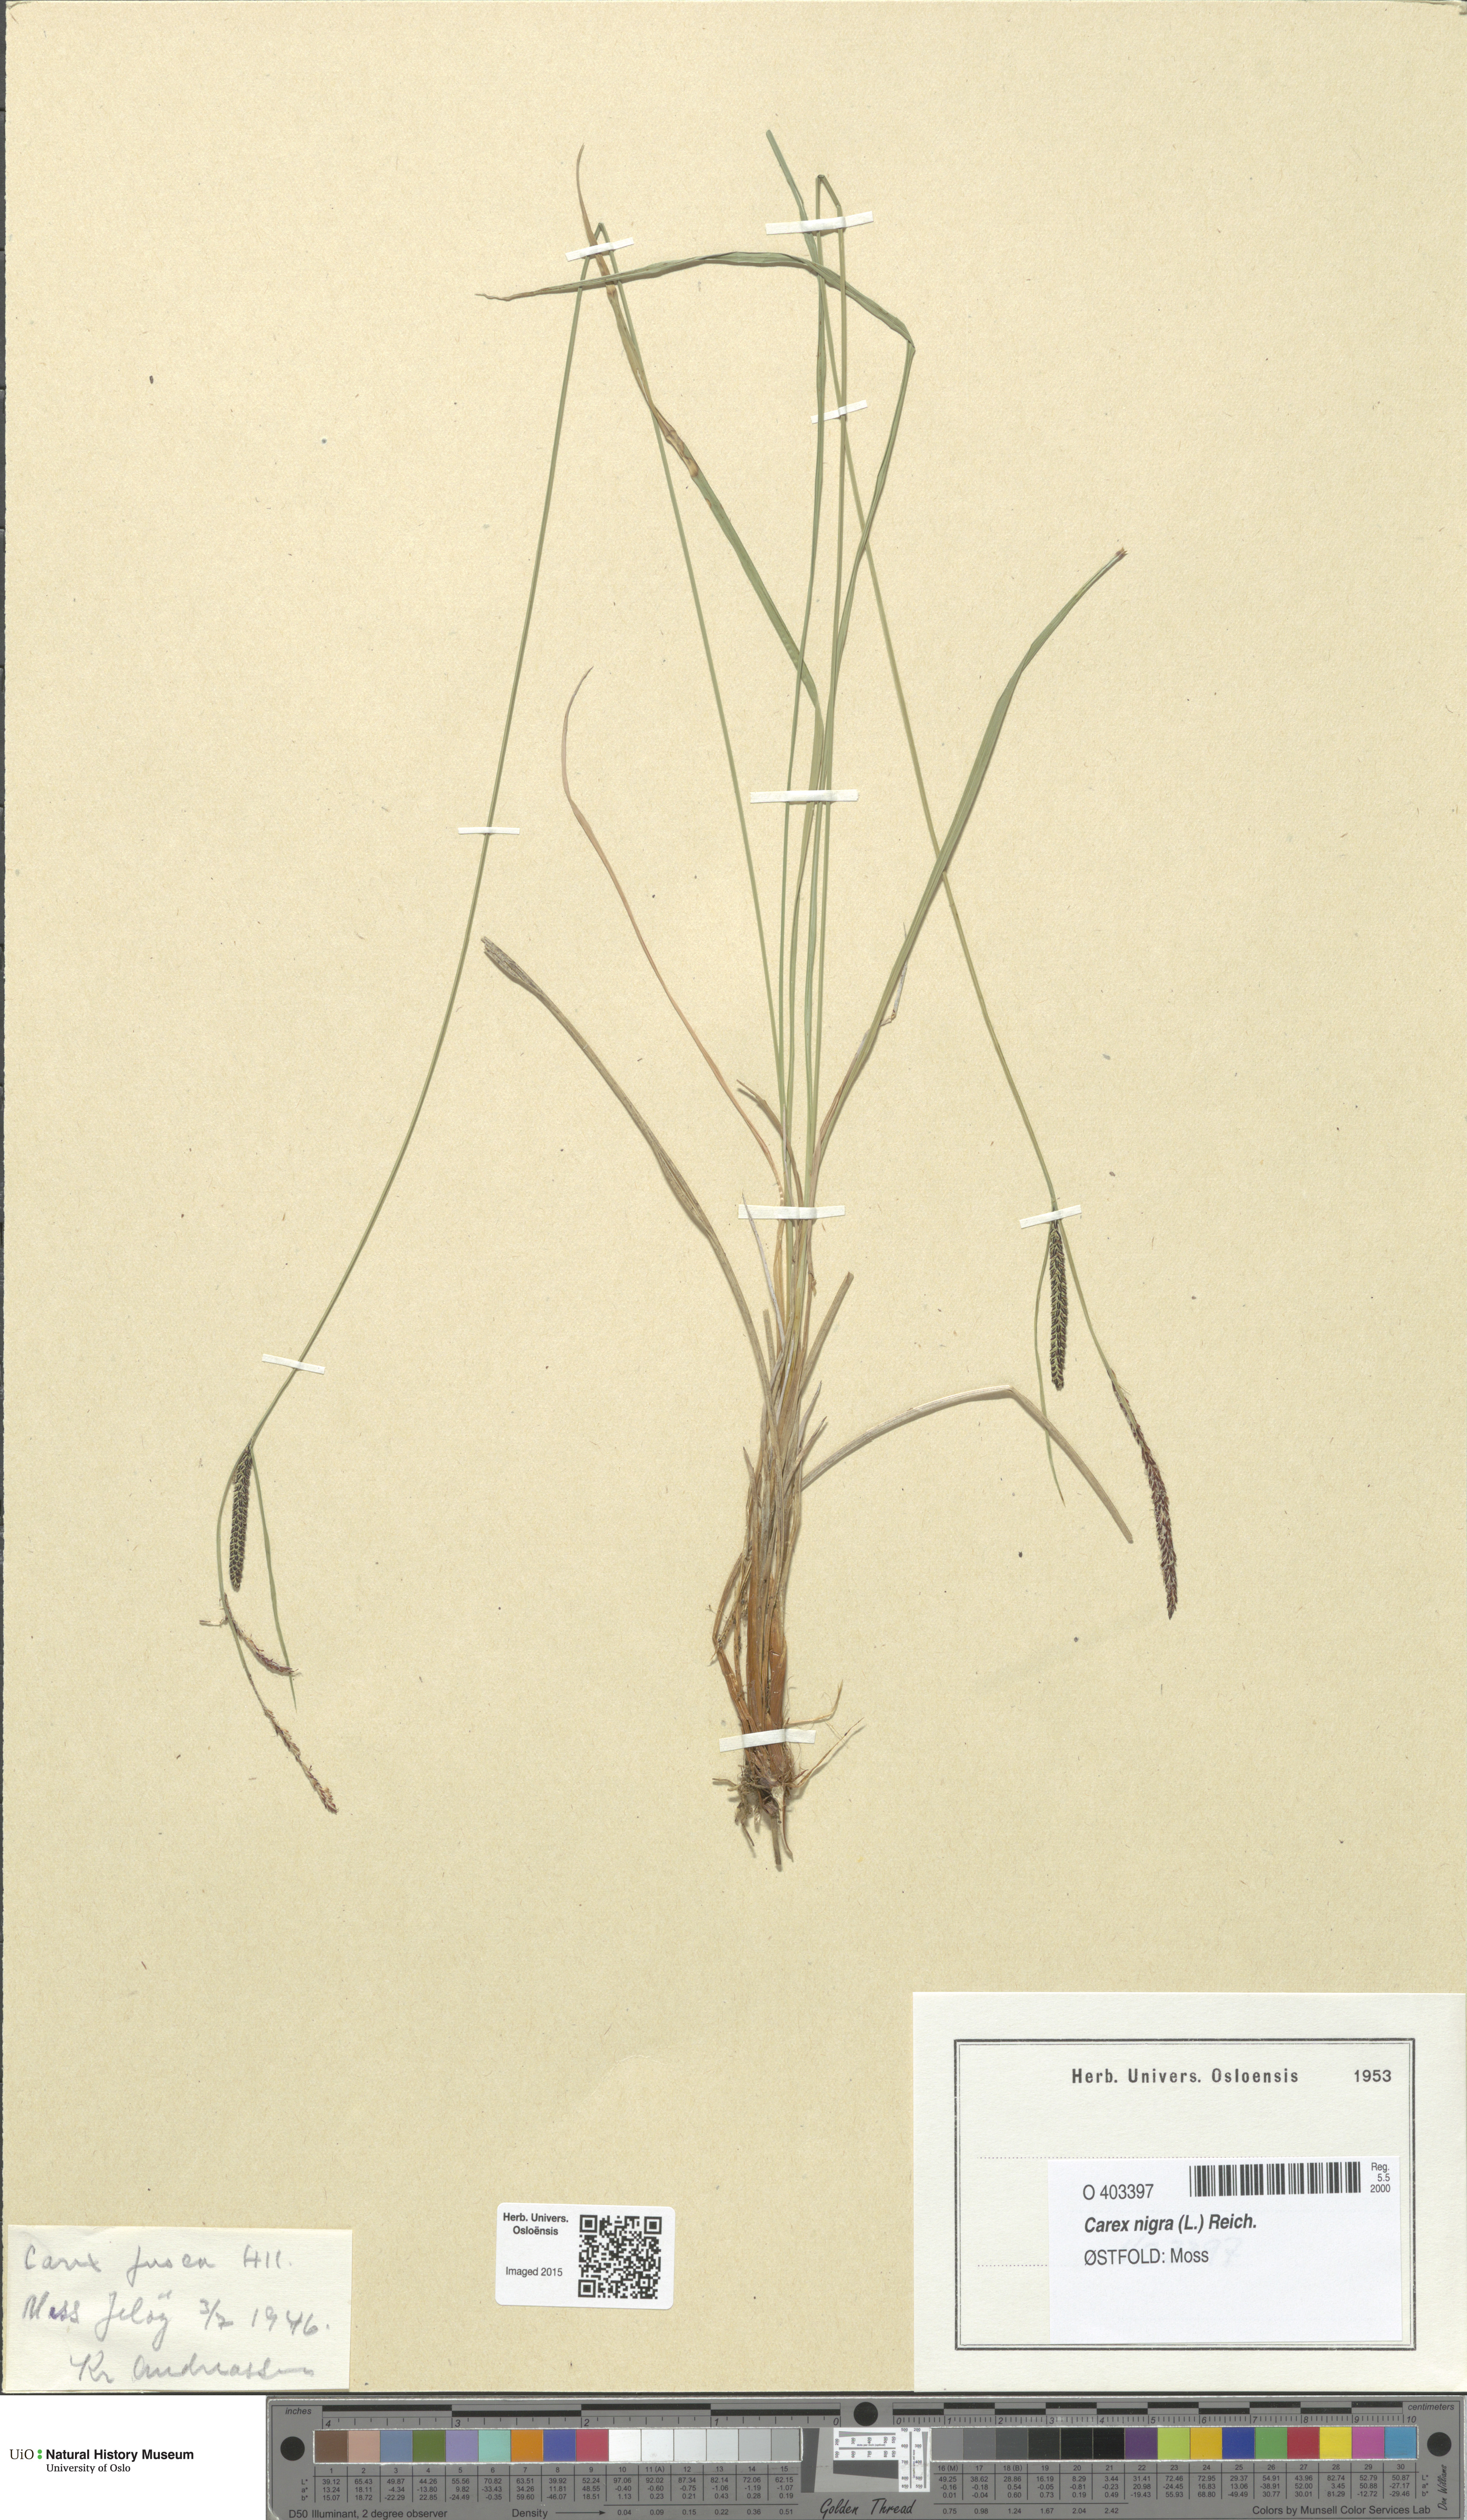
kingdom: Plantae
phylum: Tracheophyta
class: Liliopsida
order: Poales
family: Cyperaceae
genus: Carex
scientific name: Carex nigra
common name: Common sedge
